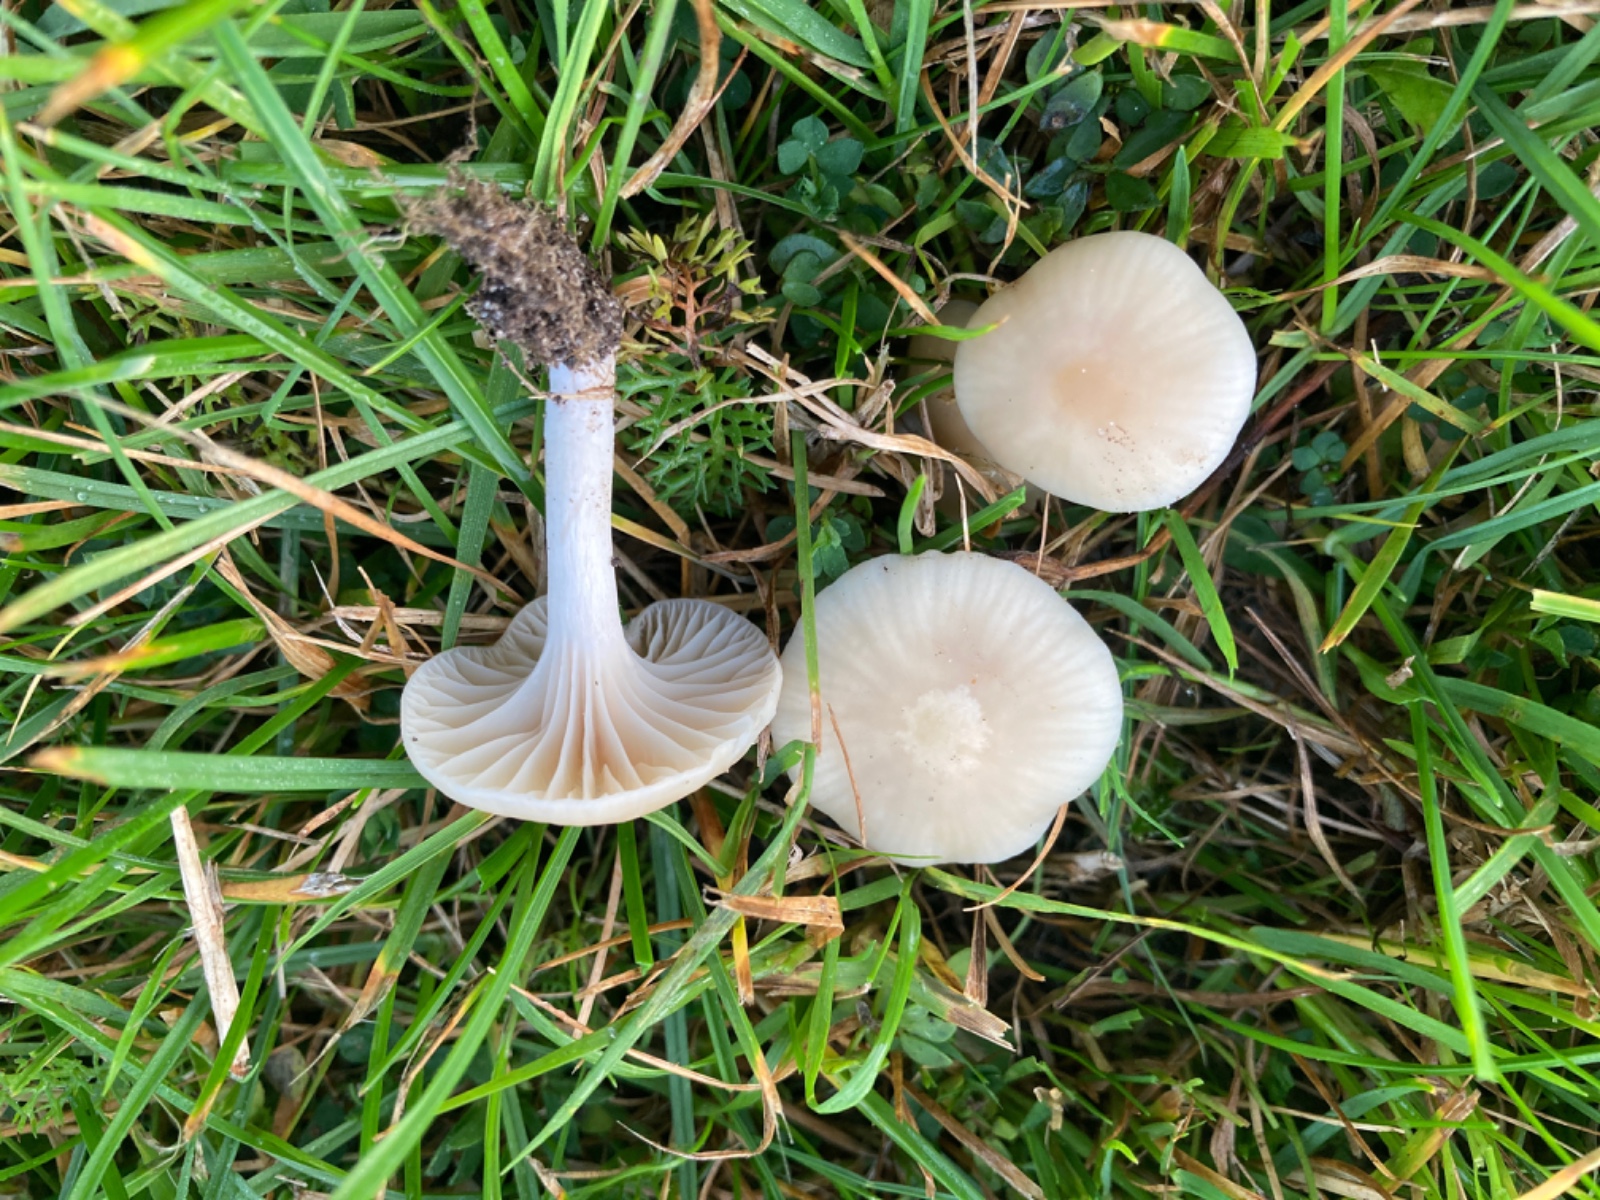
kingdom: Fungi
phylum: Basidiomycota
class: Agaricomycetes
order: Agaricales
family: Hygrophoraceae
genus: Cuphophyllus
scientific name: Cuphophyllus virgineus
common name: isabella-vokshat
